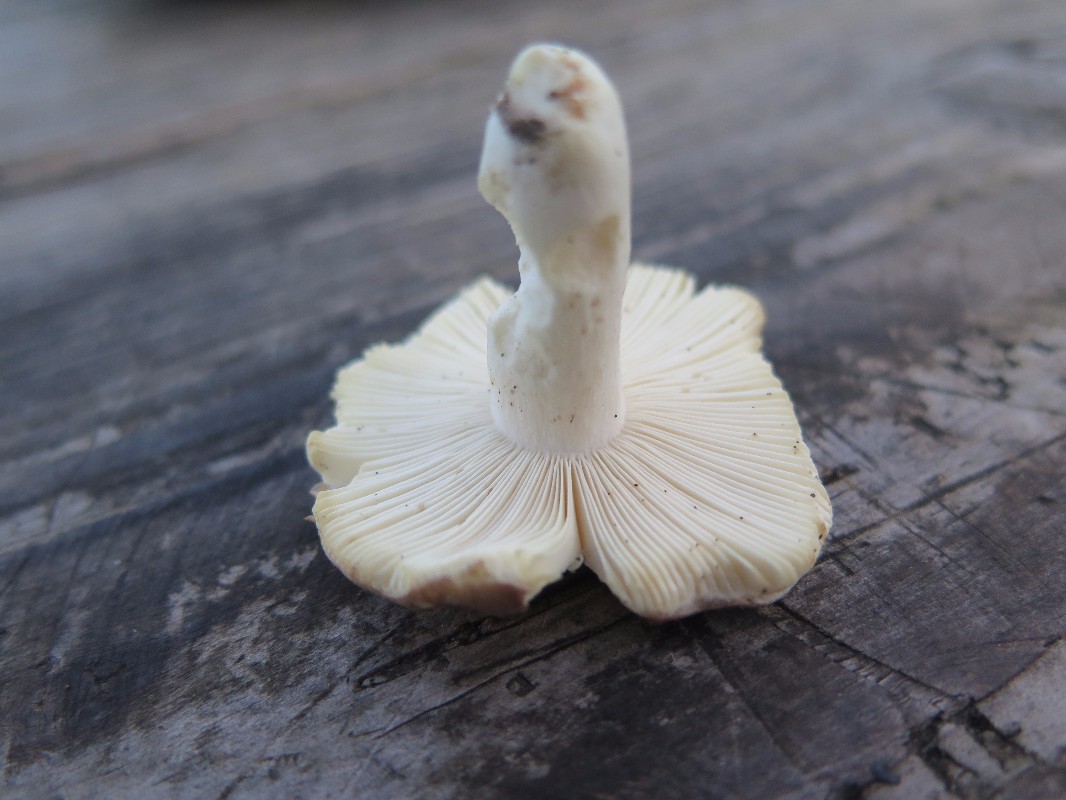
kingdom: Fungi
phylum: Basidiomycota
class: Agaricomycetes
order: Russulales
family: Russulaceae
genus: Russula
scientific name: Russula grisea
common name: grålig skørhat
